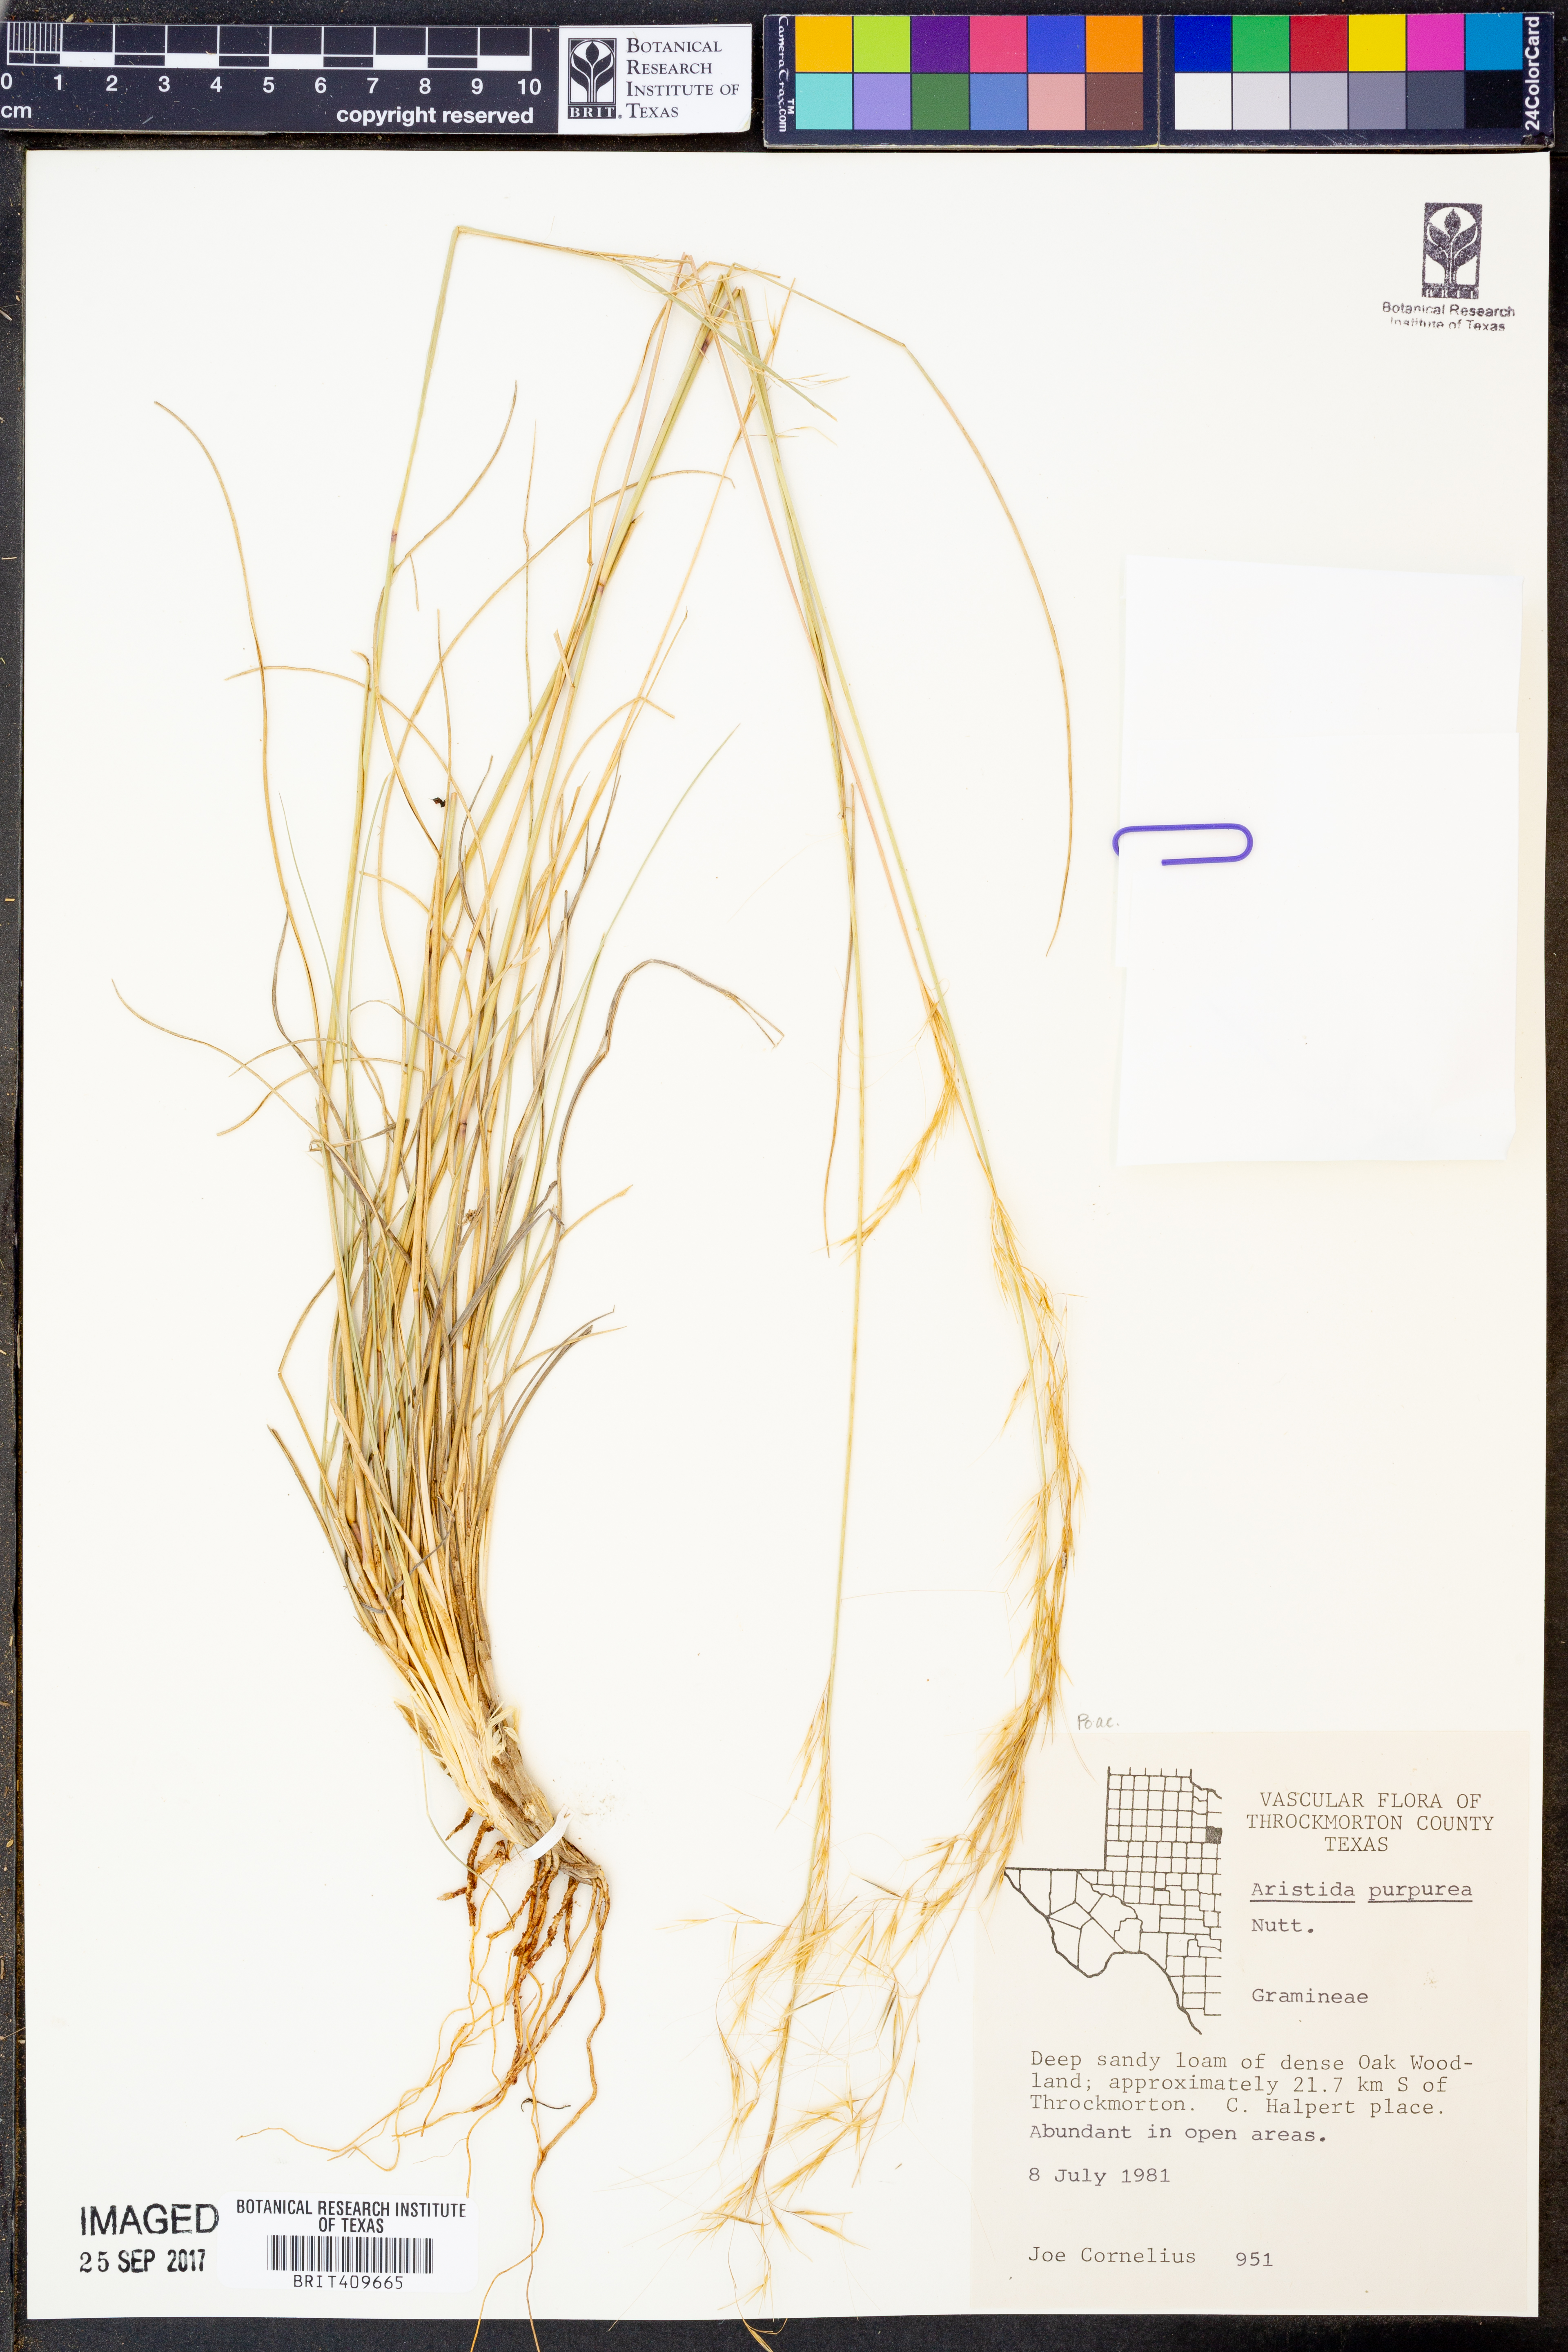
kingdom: Plantae
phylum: Tracheophyta
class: Liliopsida
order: Poales
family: Poaceae
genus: Aristida
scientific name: Aristida purpurea
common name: Purple threeawn
